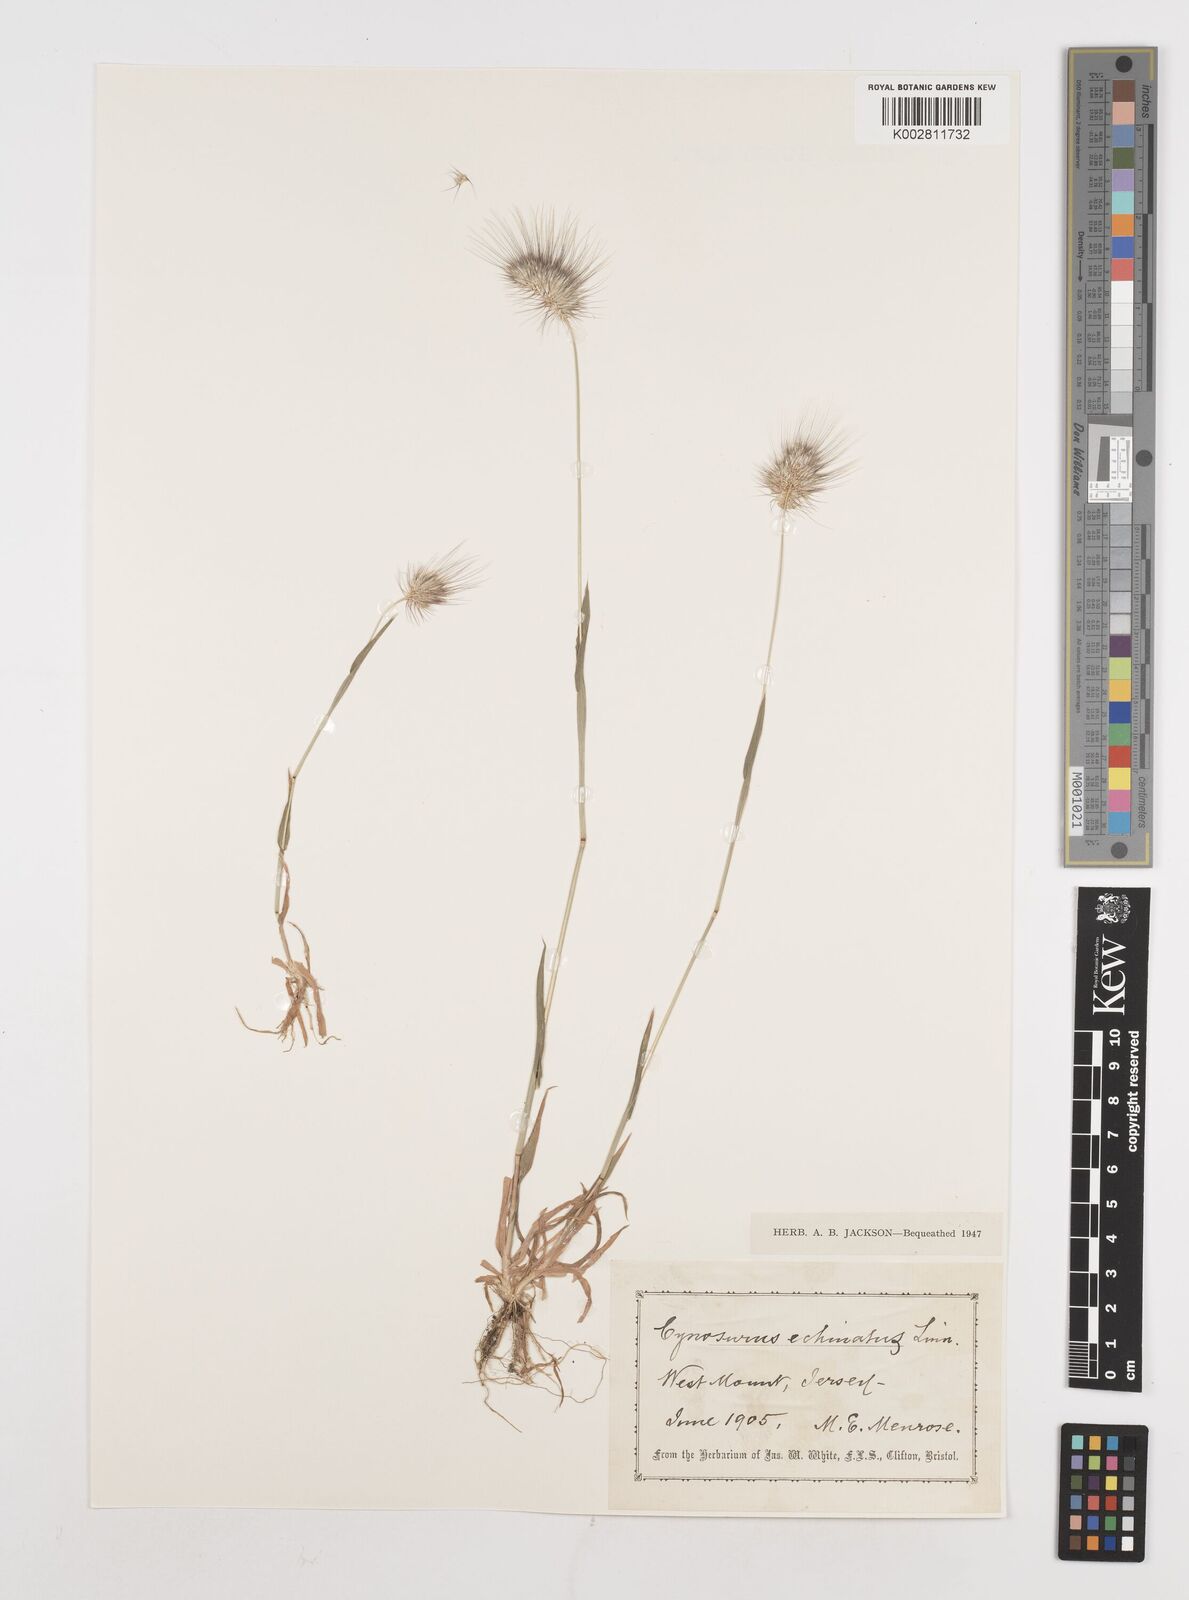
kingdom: Plantae
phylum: Tracheophyta
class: Liliopsida
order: Poales
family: Poaceae
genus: Cynosurus
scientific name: Cynosurus echinatus
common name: Rough dog's-tail
